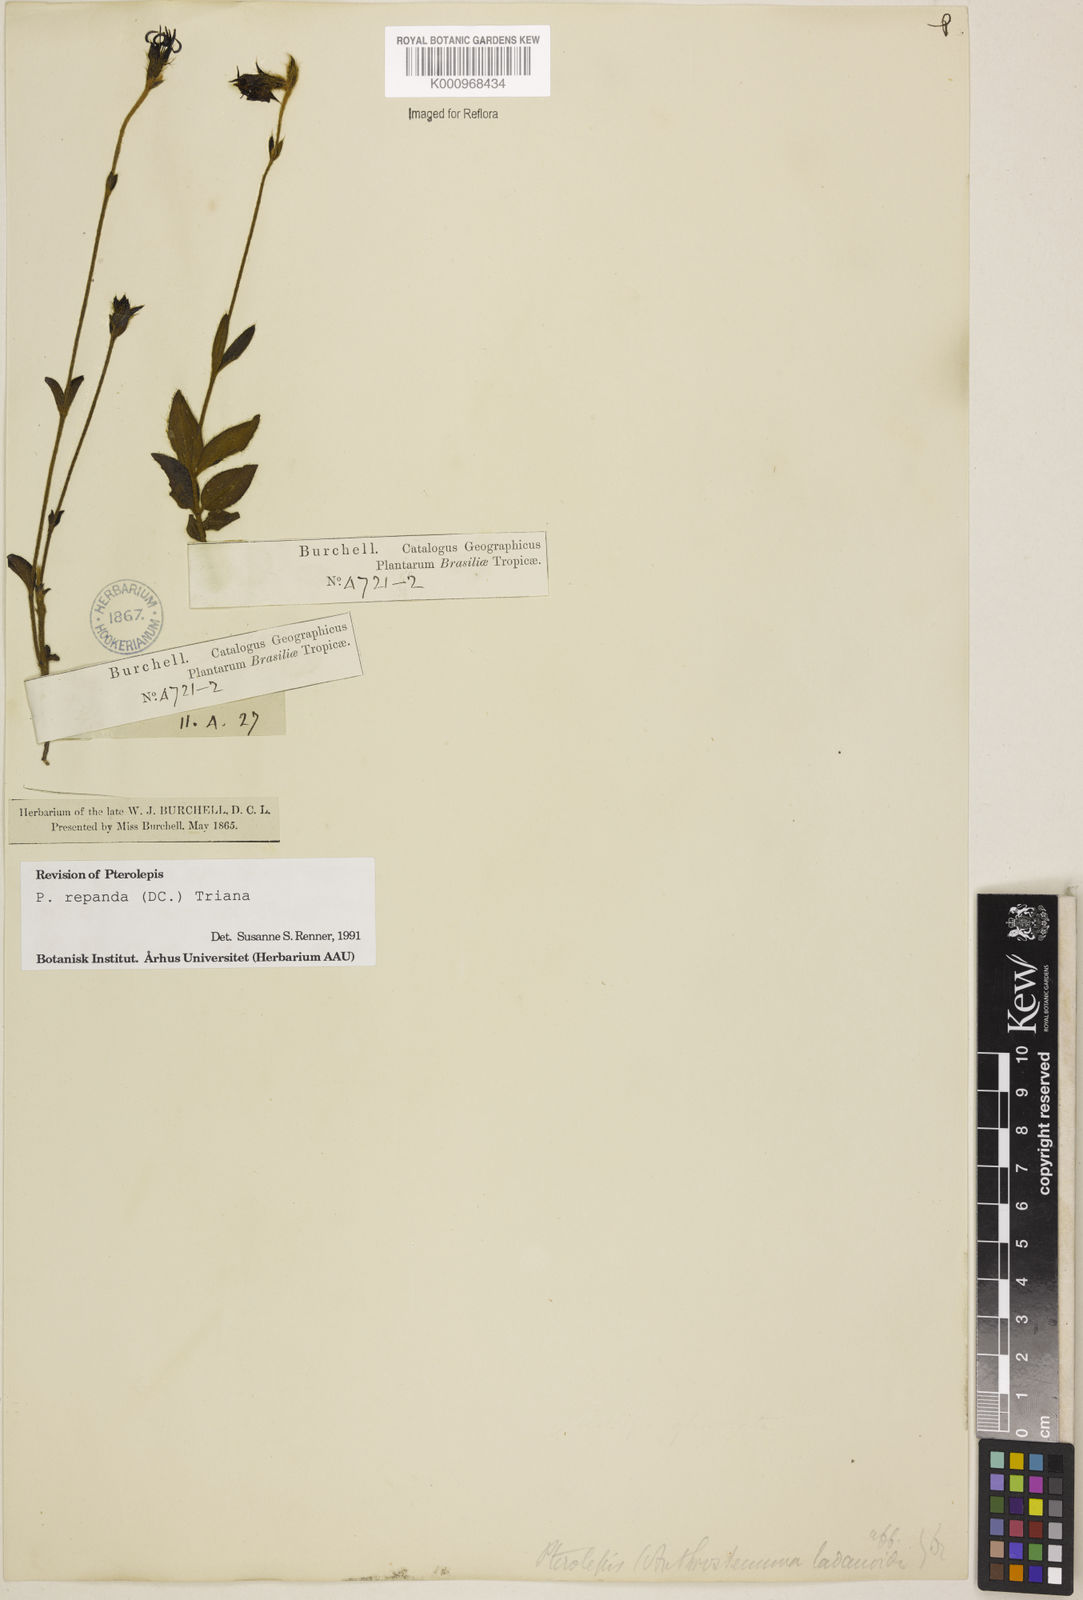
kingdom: Plantae
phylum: Tracheophyta
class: Magnoliopsida
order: Myrtales
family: Melastomataceae
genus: Pterolepis
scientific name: Pterolepis repanda
